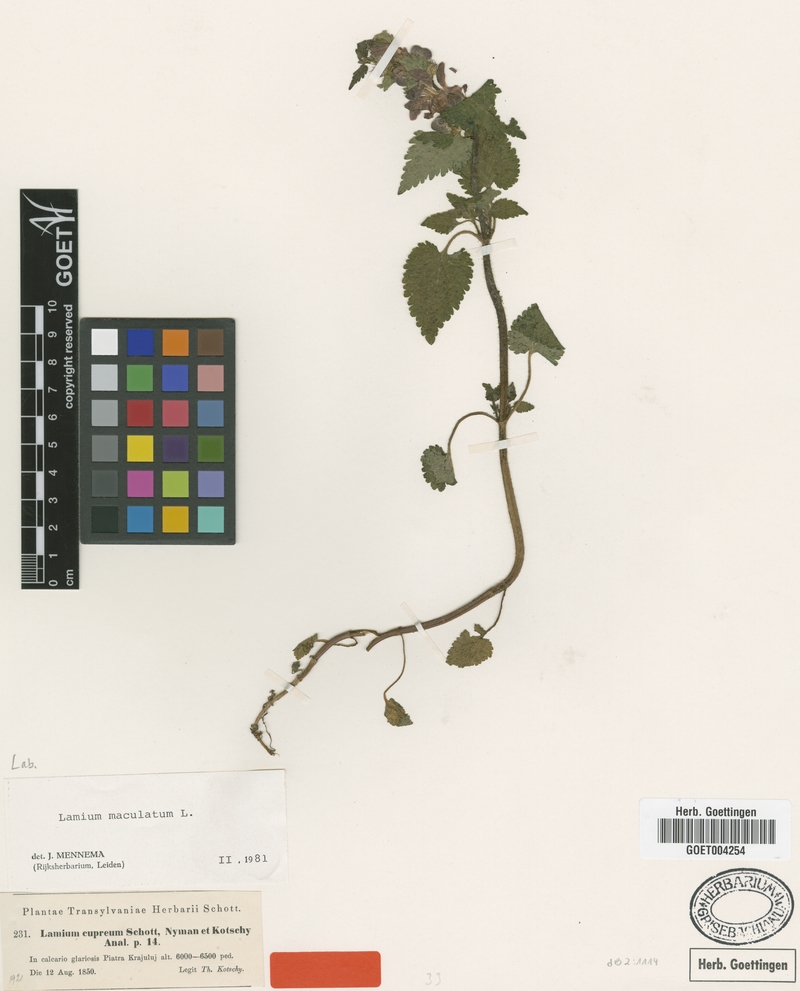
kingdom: Plantae
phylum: Tracheophyta
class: Magnoliopsida
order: Lamiales
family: Lamiaceae
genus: Lamium
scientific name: Lamium maculatum
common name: Spotted dead-nettle
